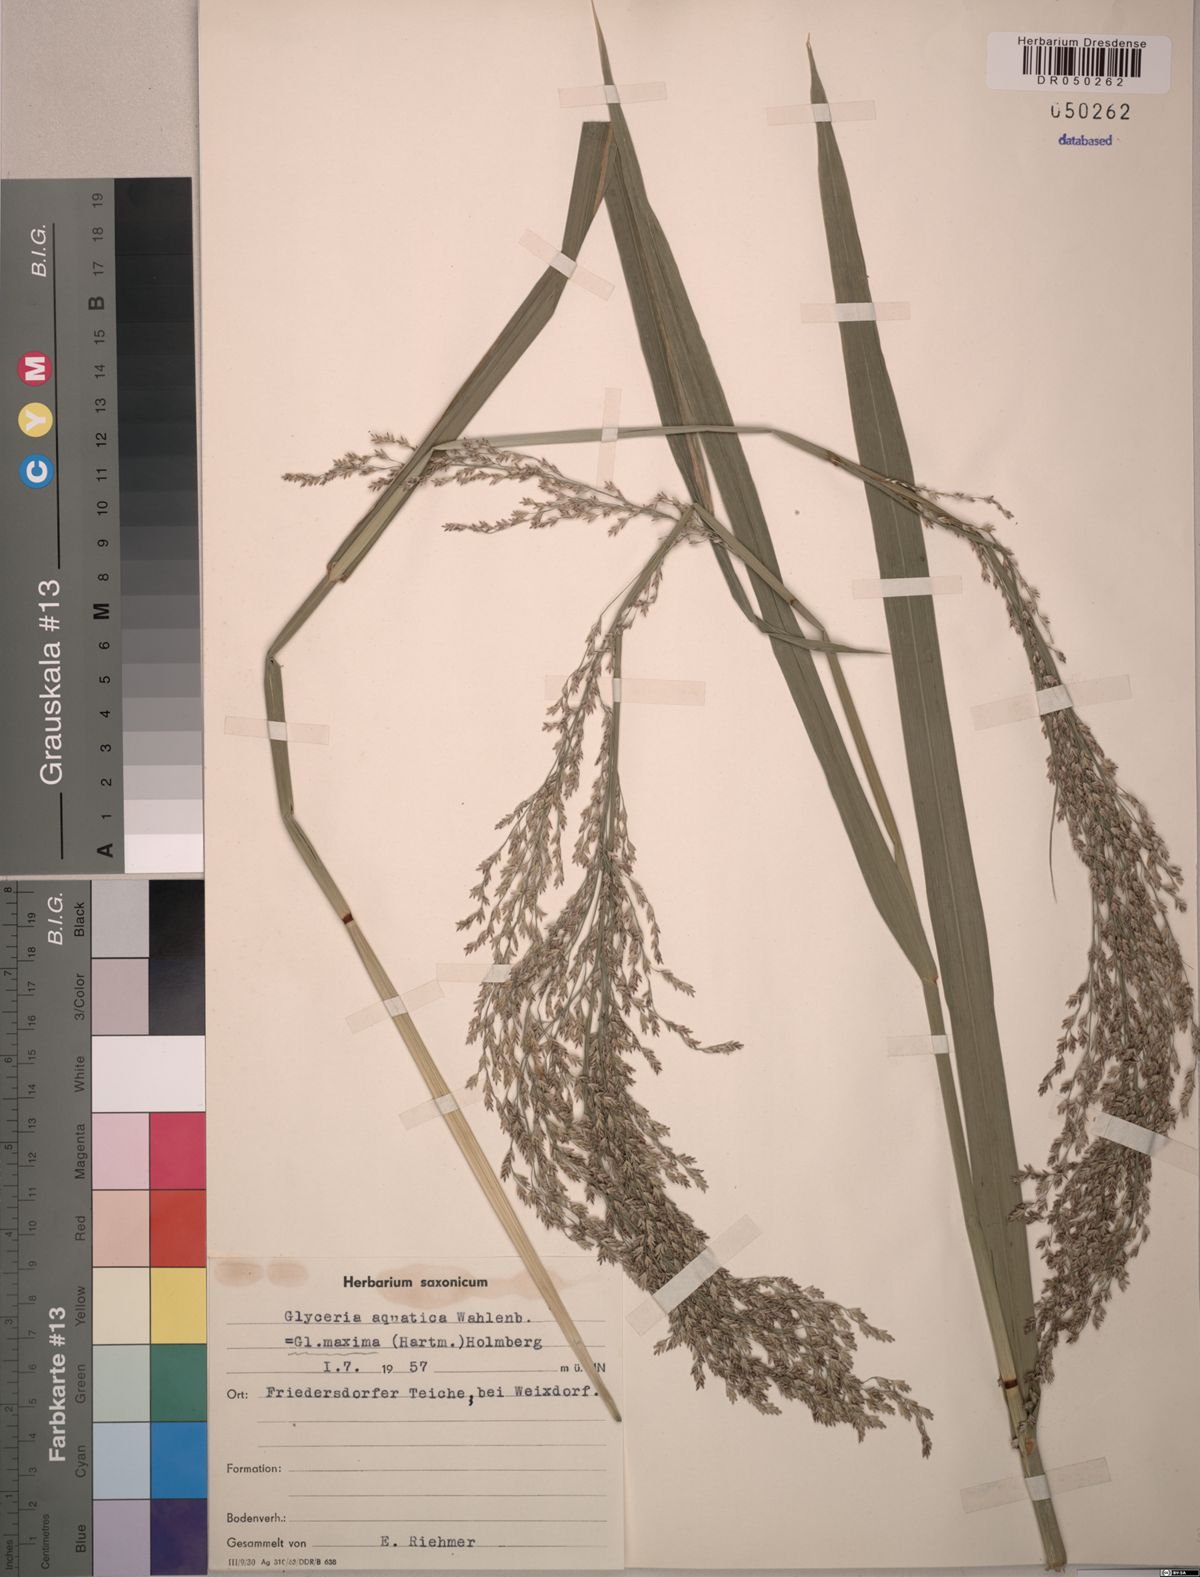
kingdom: Plantae
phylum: Tracheophyta
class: Liliopsida
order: Poales
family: Poaceae
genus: Glyceria
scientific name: Glyceria maxima
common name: Reed mannagrass
